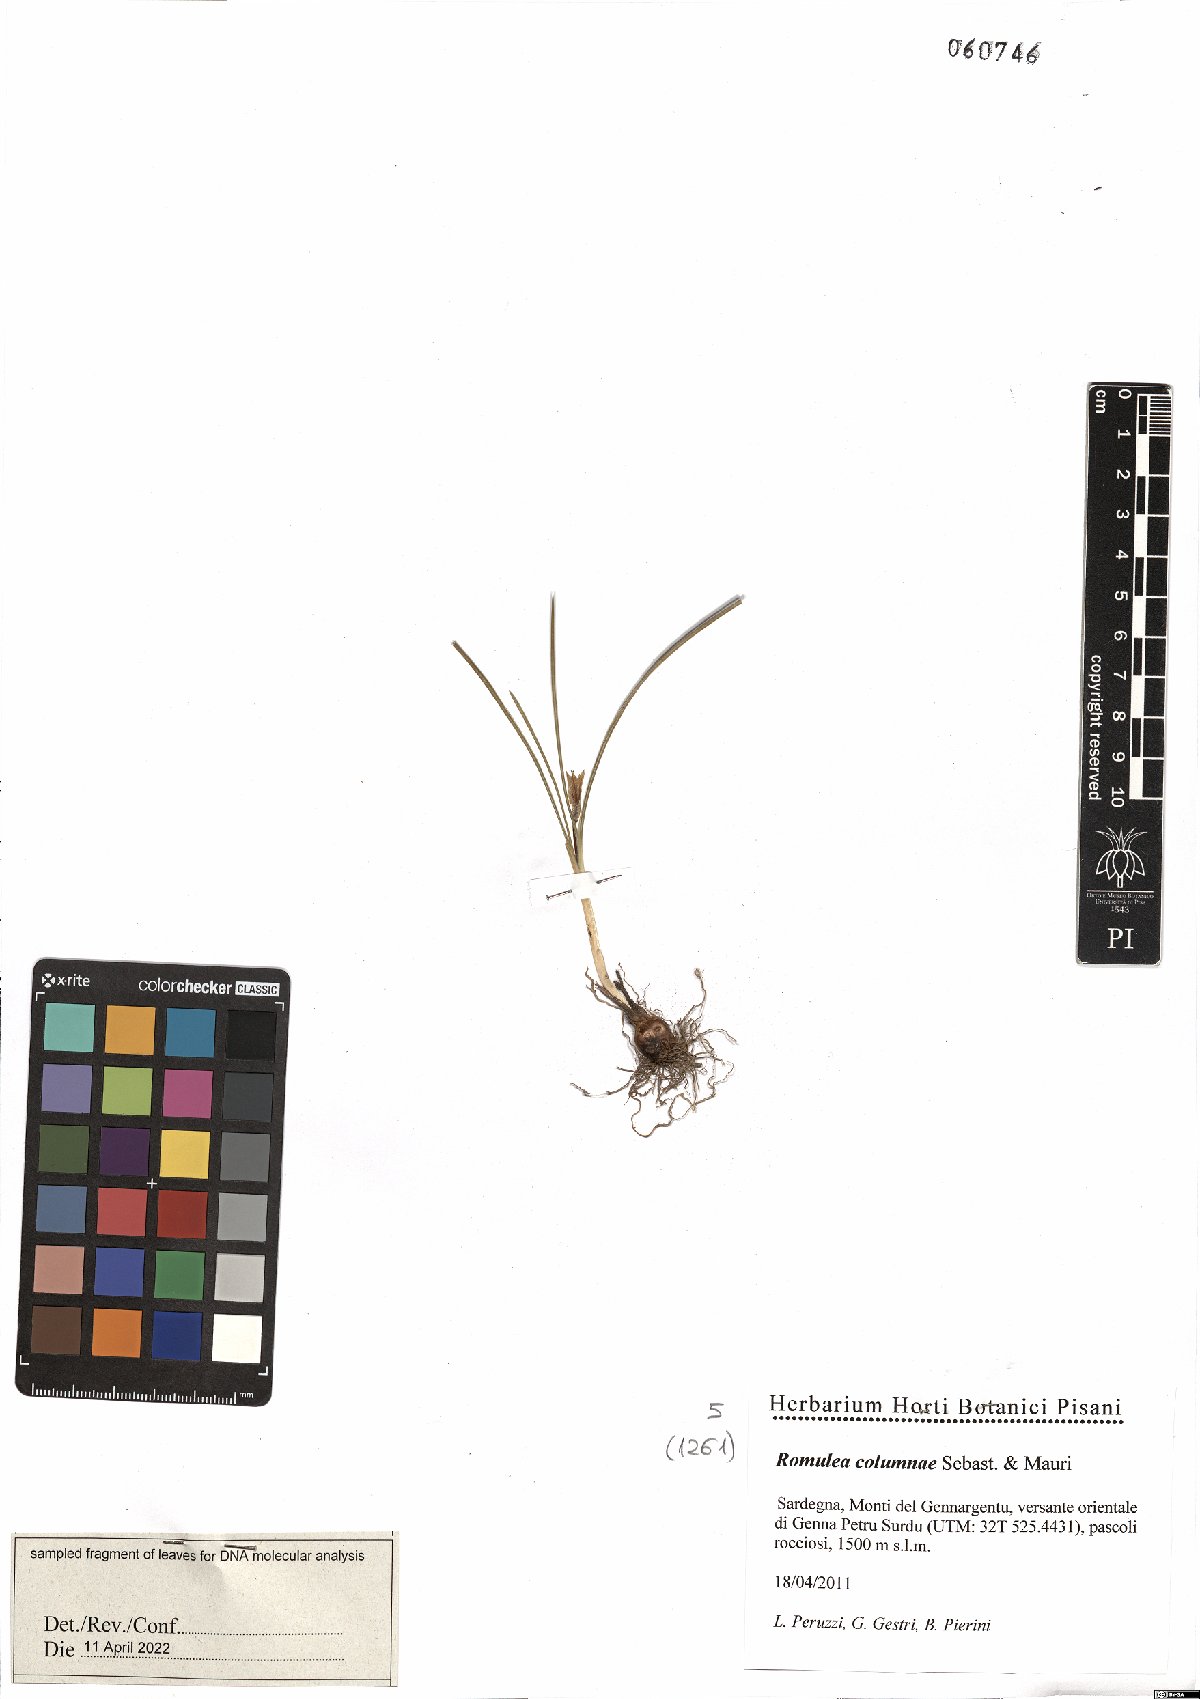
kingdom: Plantae
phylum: Tracheophyta
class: Liliopsida
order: Asparagales
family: Iridaceae
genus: Romulea
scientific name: Romulea columnae
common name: Sand-crocus
